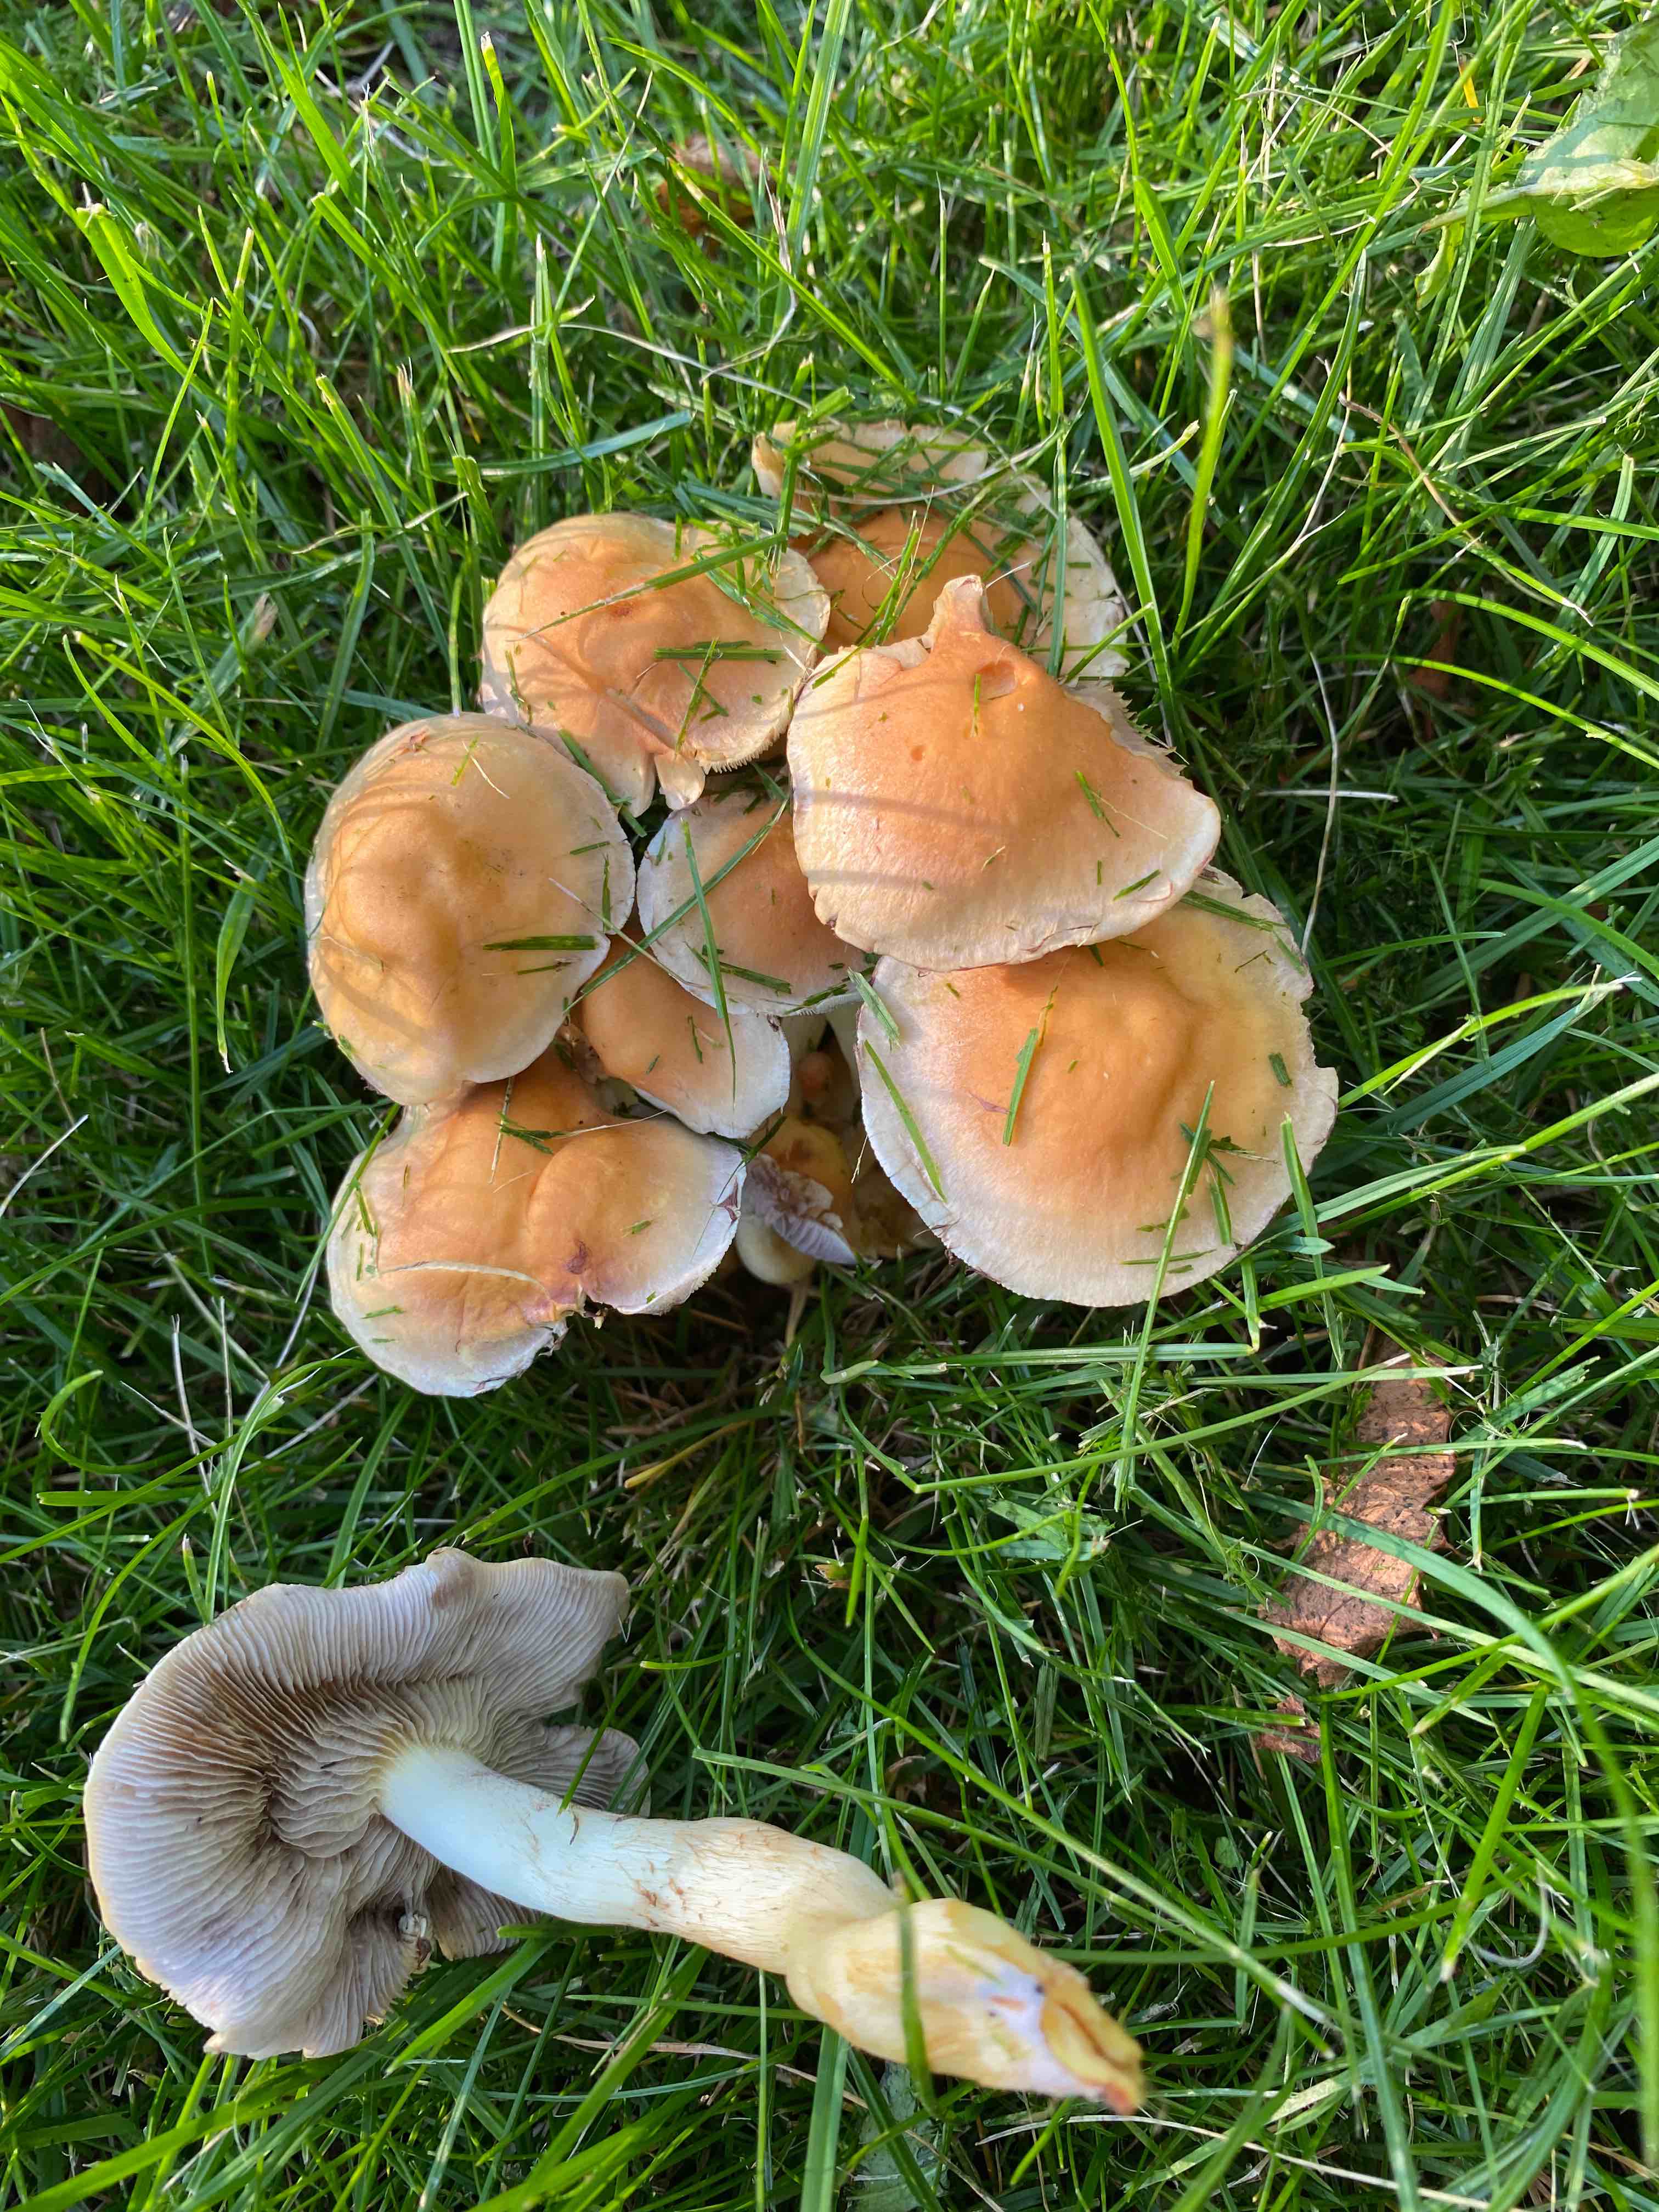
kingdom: Fungi
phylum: Basidiomycota
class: Agaricomycetes
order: Agaricales
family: Strophariaceae
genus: Hypholoma
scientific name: Hypholoma fasciculare
